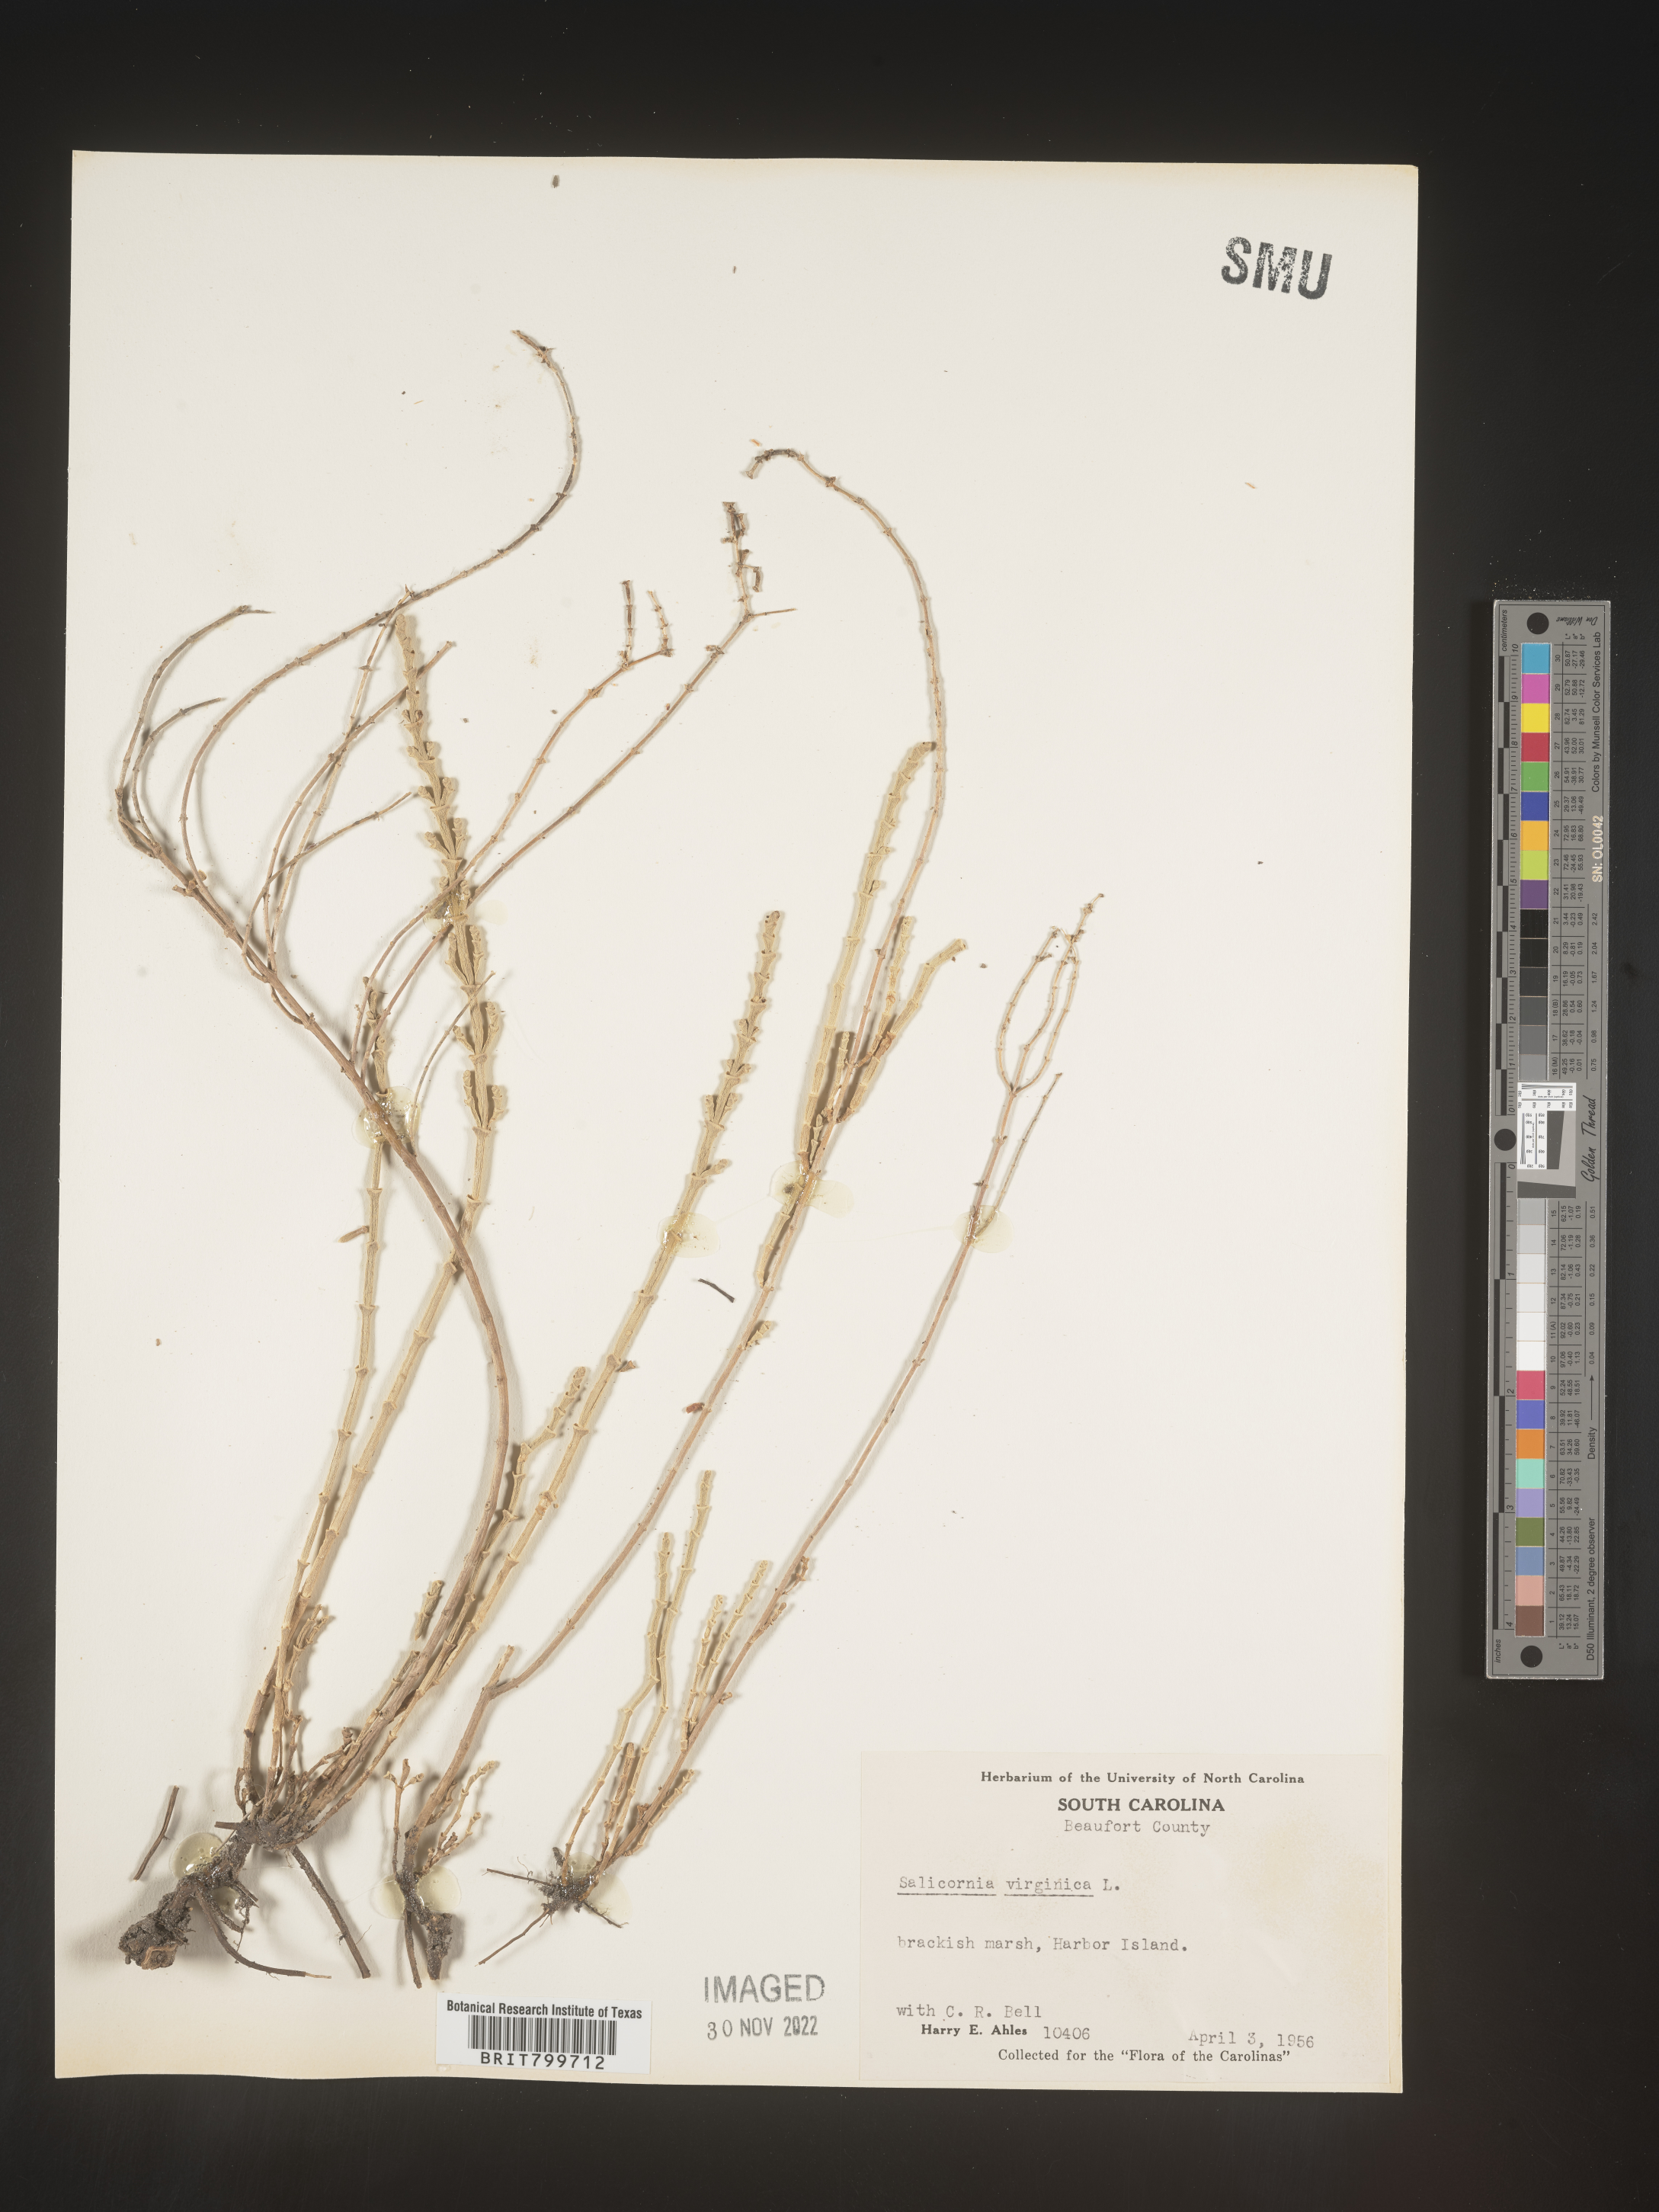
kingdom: Plantae
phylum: Tracheophyta
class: Magnoliopsida
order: Caryophyllales
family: Amaranthaceae
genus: Salicornia
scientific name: Salicornia virginica
